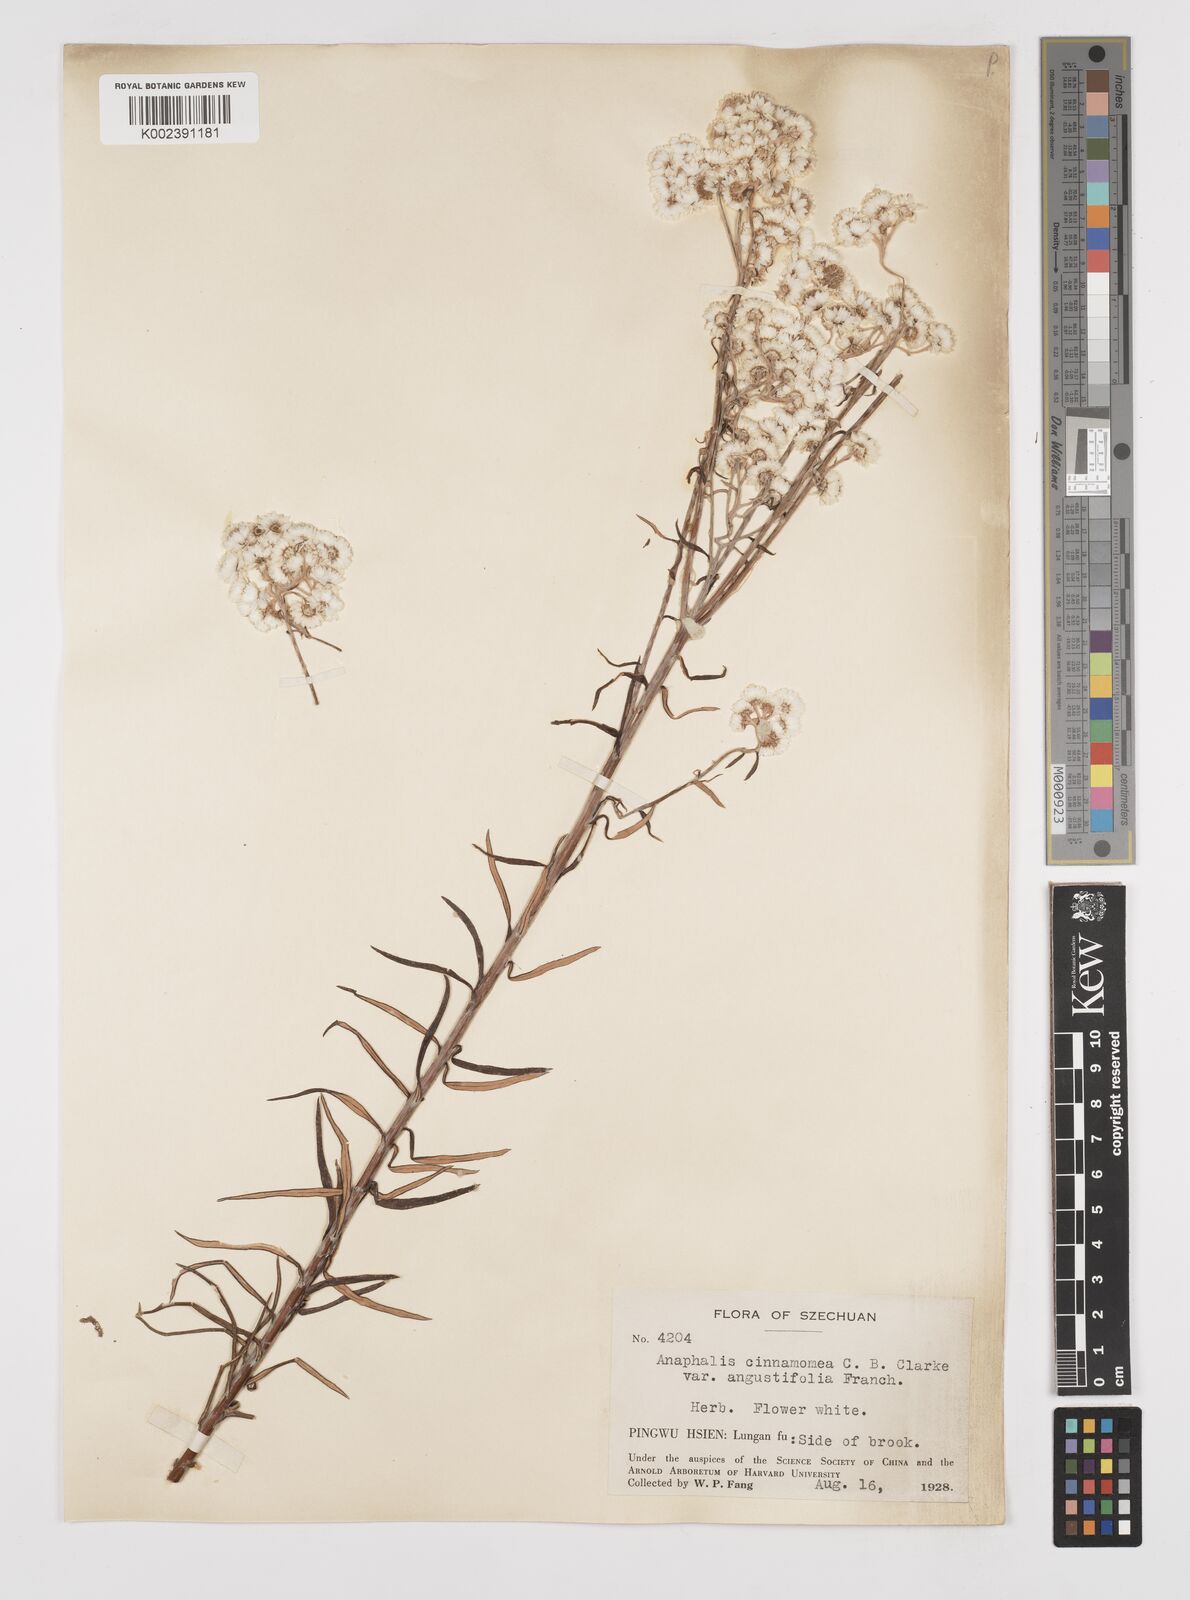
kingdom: Plantae
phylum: Tracheophyta
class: Magnoliopsida
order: Asterales
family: Asteraceae
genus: Anaphalis
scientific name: Anaphalis margaritacea
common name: Pearly everlasting
